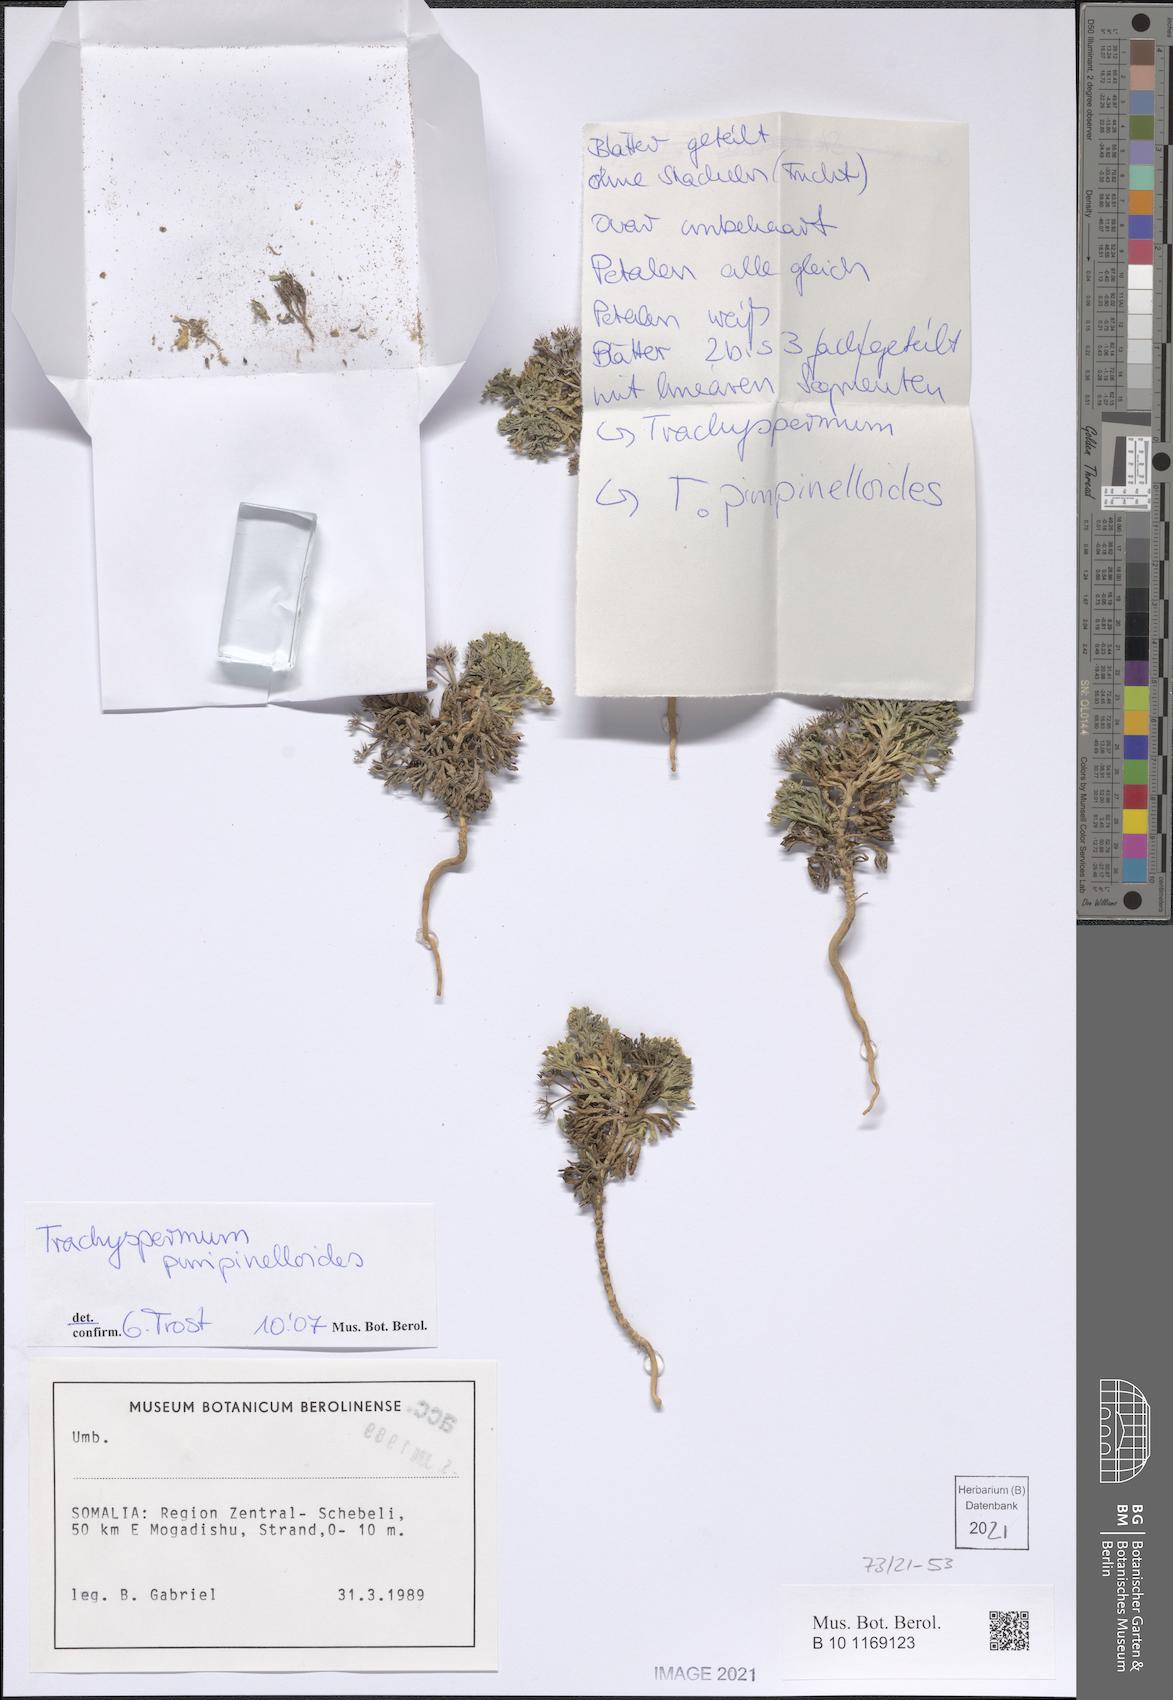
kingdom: Plantae
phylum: Tracheophyta
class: Magnoliopsida
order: Apiales
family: Apiaceae
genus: Trachyspermum
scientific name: Trachyspermum pimpinelloides
